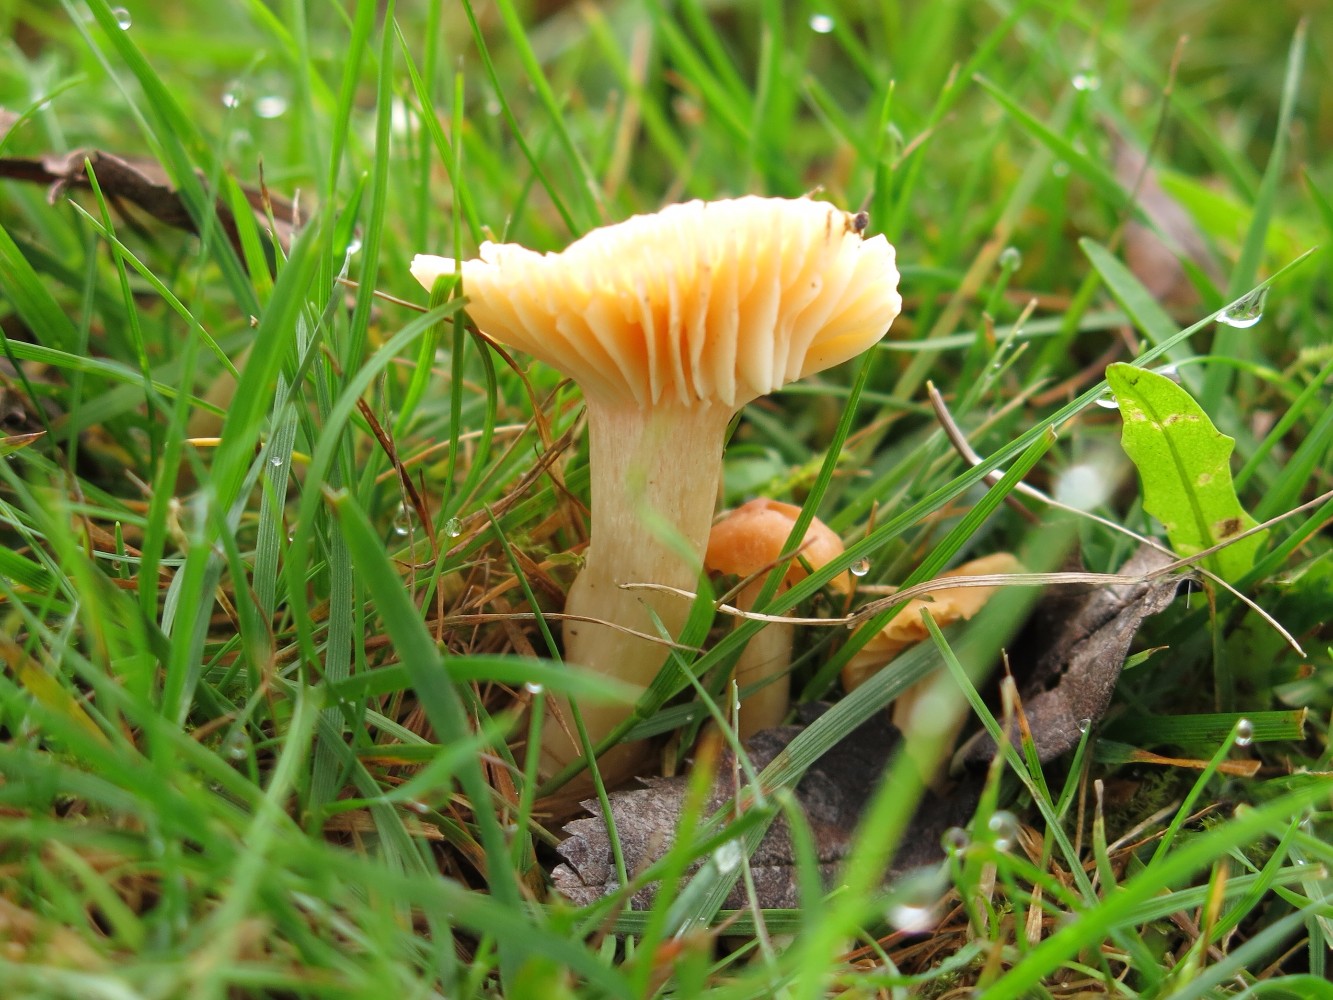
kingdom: Fungi
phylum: Basidiomycota
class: Agaricomycetes
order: Agaricales
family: Hygrophoraceae
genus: Cuphophyllus
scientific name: Cuphophyllus pratensis
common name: eng-vokshat
